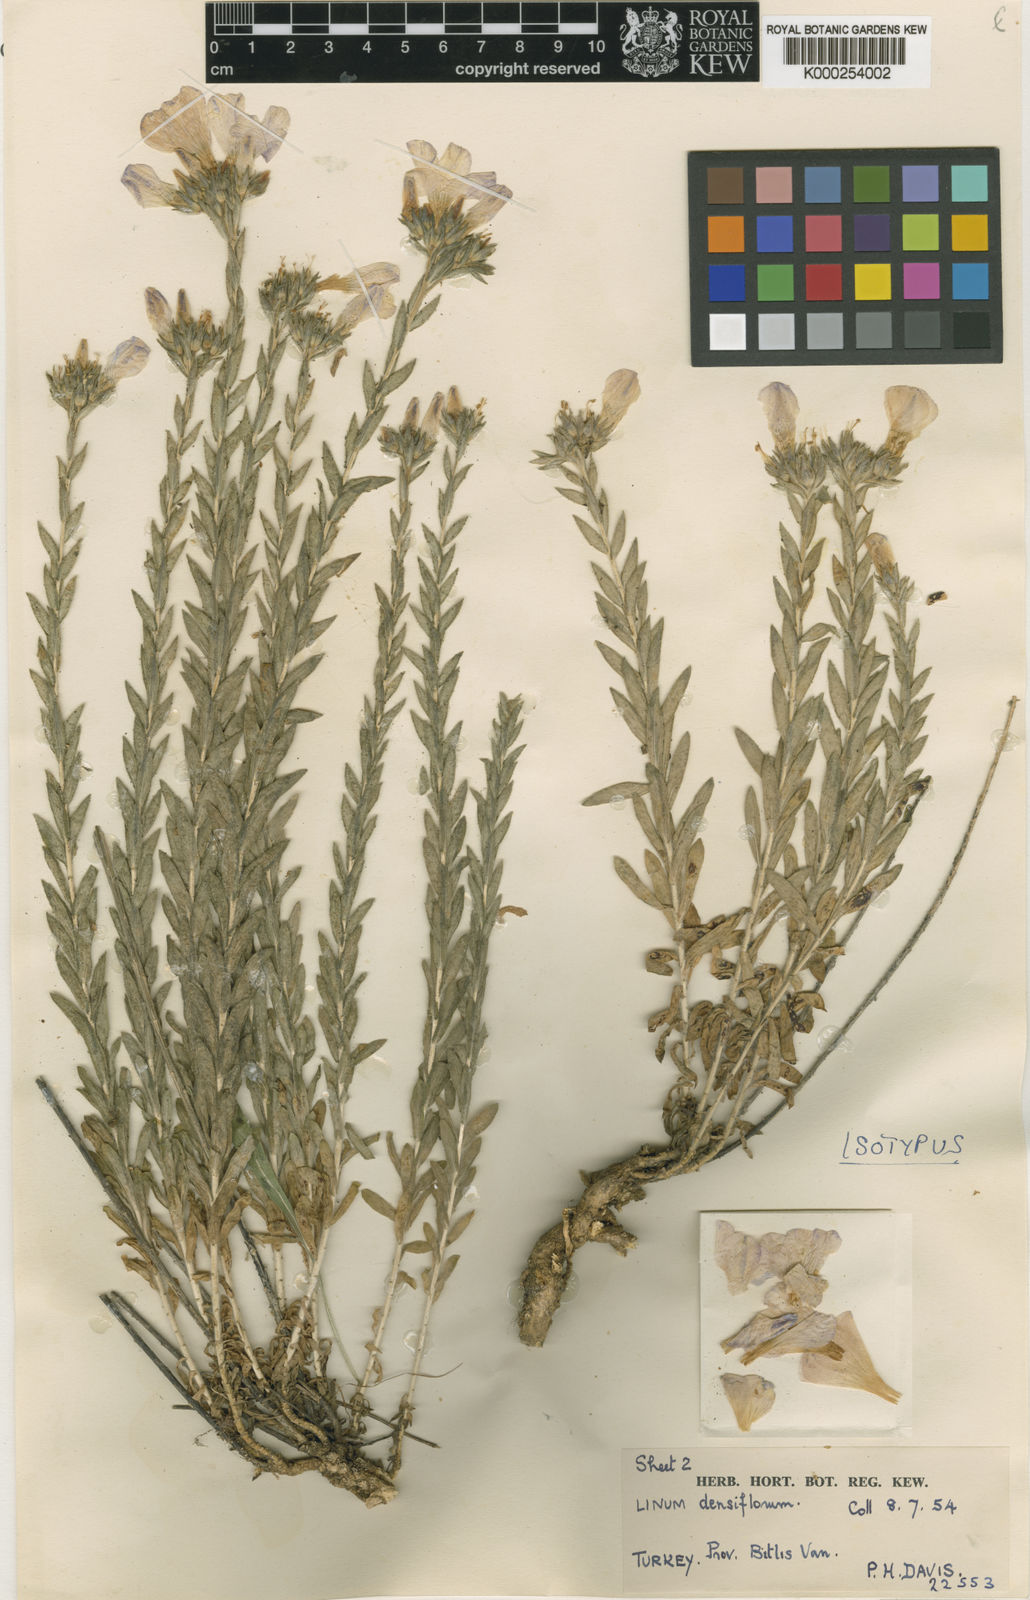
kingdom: Plantae
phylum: Tracheophyta
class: Magnoliopsida
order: Malpighiales
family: Linaceae
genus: Linum
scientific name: Linum densiflorum
